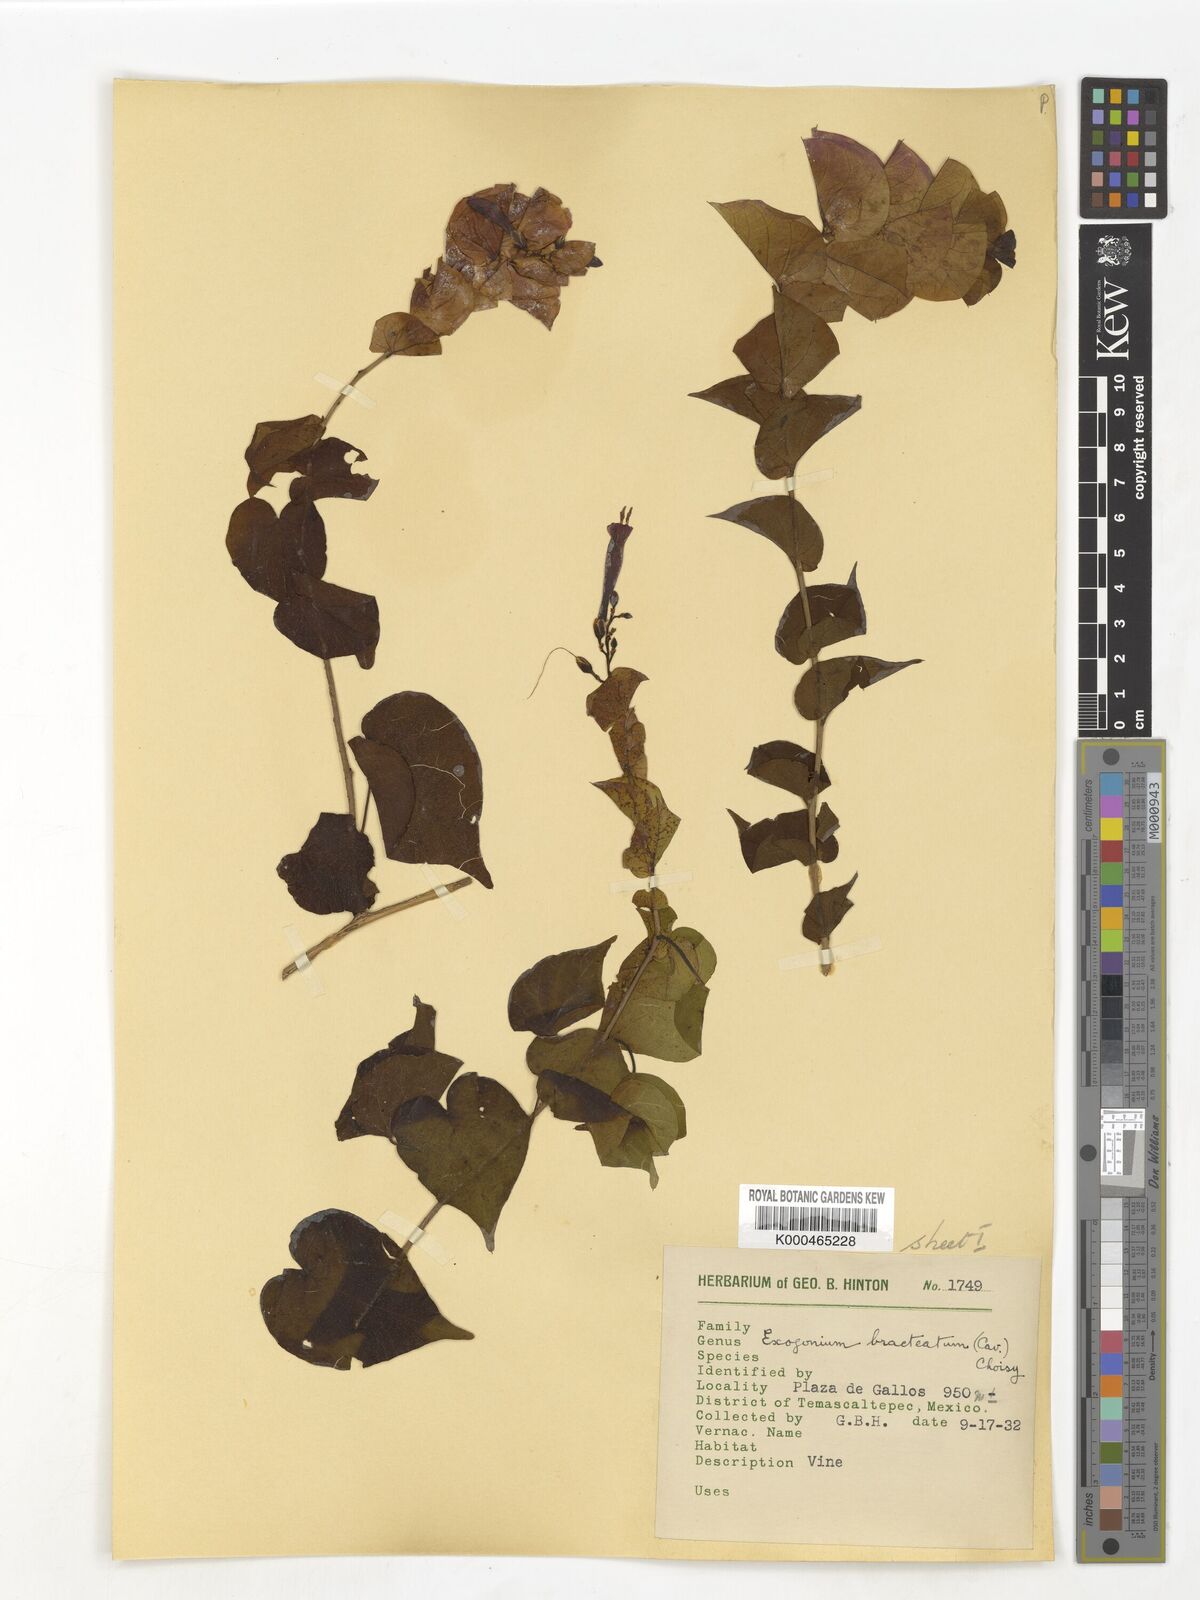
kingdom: Plantae
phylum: Tracheophyta
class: Magnoliopsida
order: Solanales
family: Convolvulaceae
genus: Ipomoea
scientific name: Ipomoea bracteata
